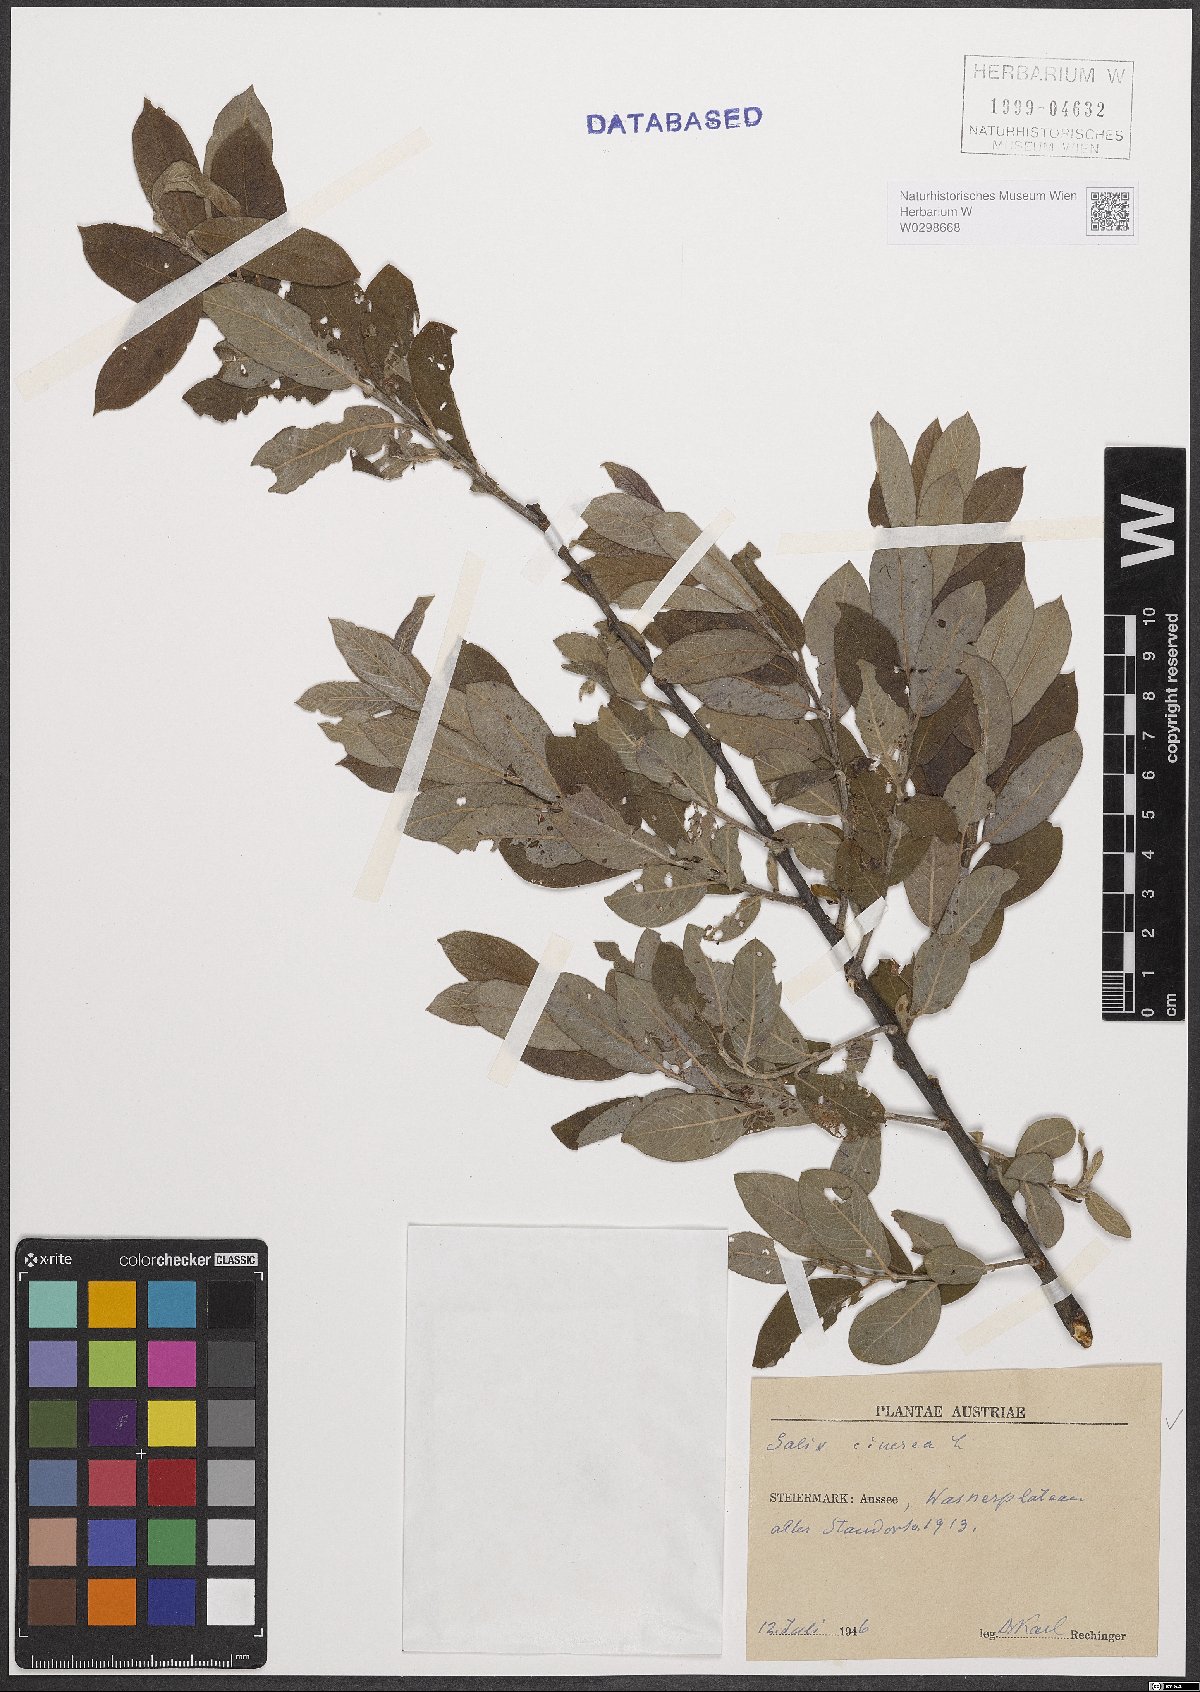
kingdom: Plantae
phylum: Tracheophyta
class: Magnoliopsida
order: Malpighiales
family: Salicaceae
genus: Salix
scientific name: Salix cinerea
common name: Common sallow
